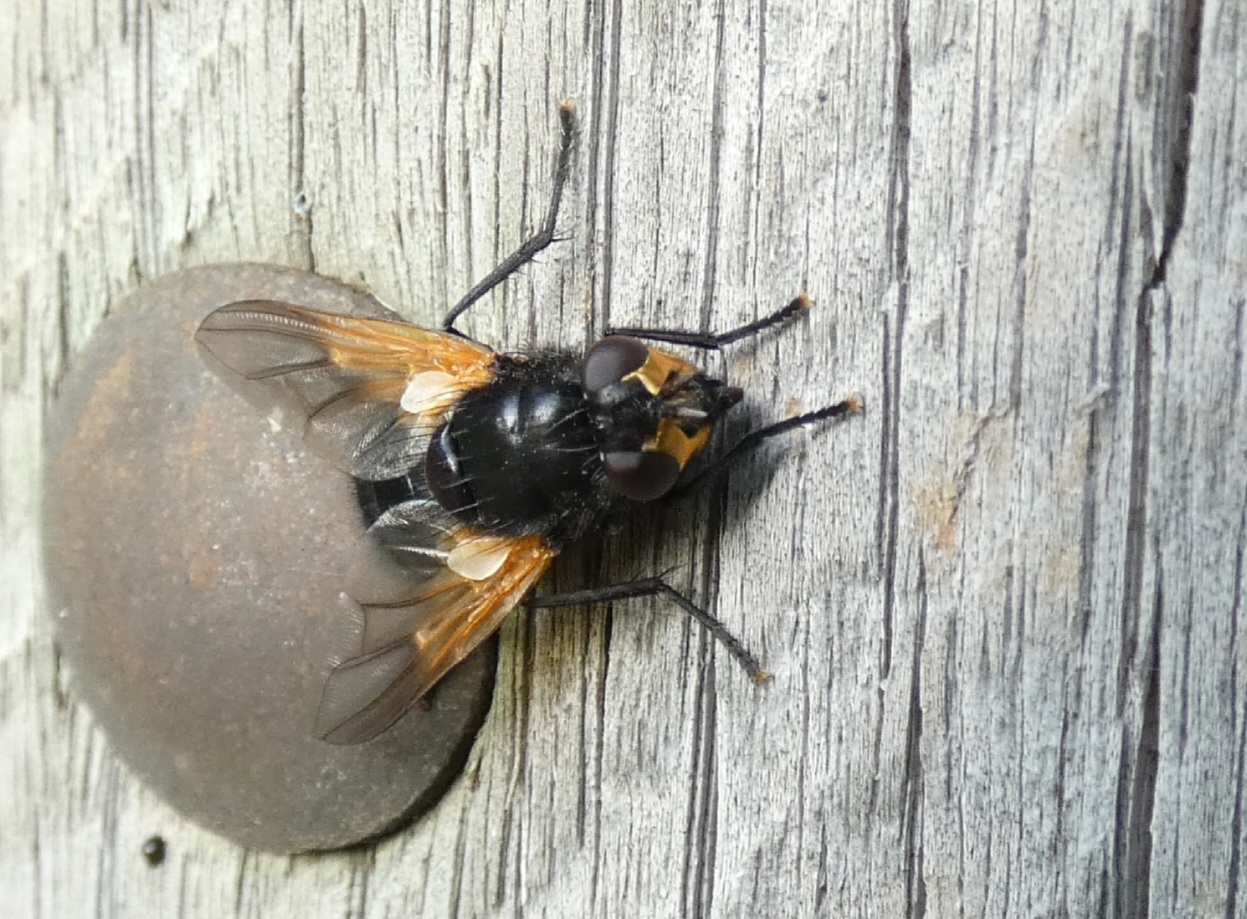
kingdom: Animalia
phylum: Arthropoda
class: Insecta
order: Diptera
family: Muscidae
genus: Mesembrina
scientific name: Mesembrina meridiana
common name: Gulvinget flue
